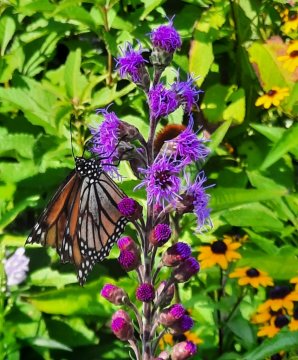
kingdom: Animalia
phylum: Arthropoda
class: Insecta
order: Lepidoptera
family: Nymphalidae
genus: Danaus
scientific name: Danaus plexippus
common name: Monarch
